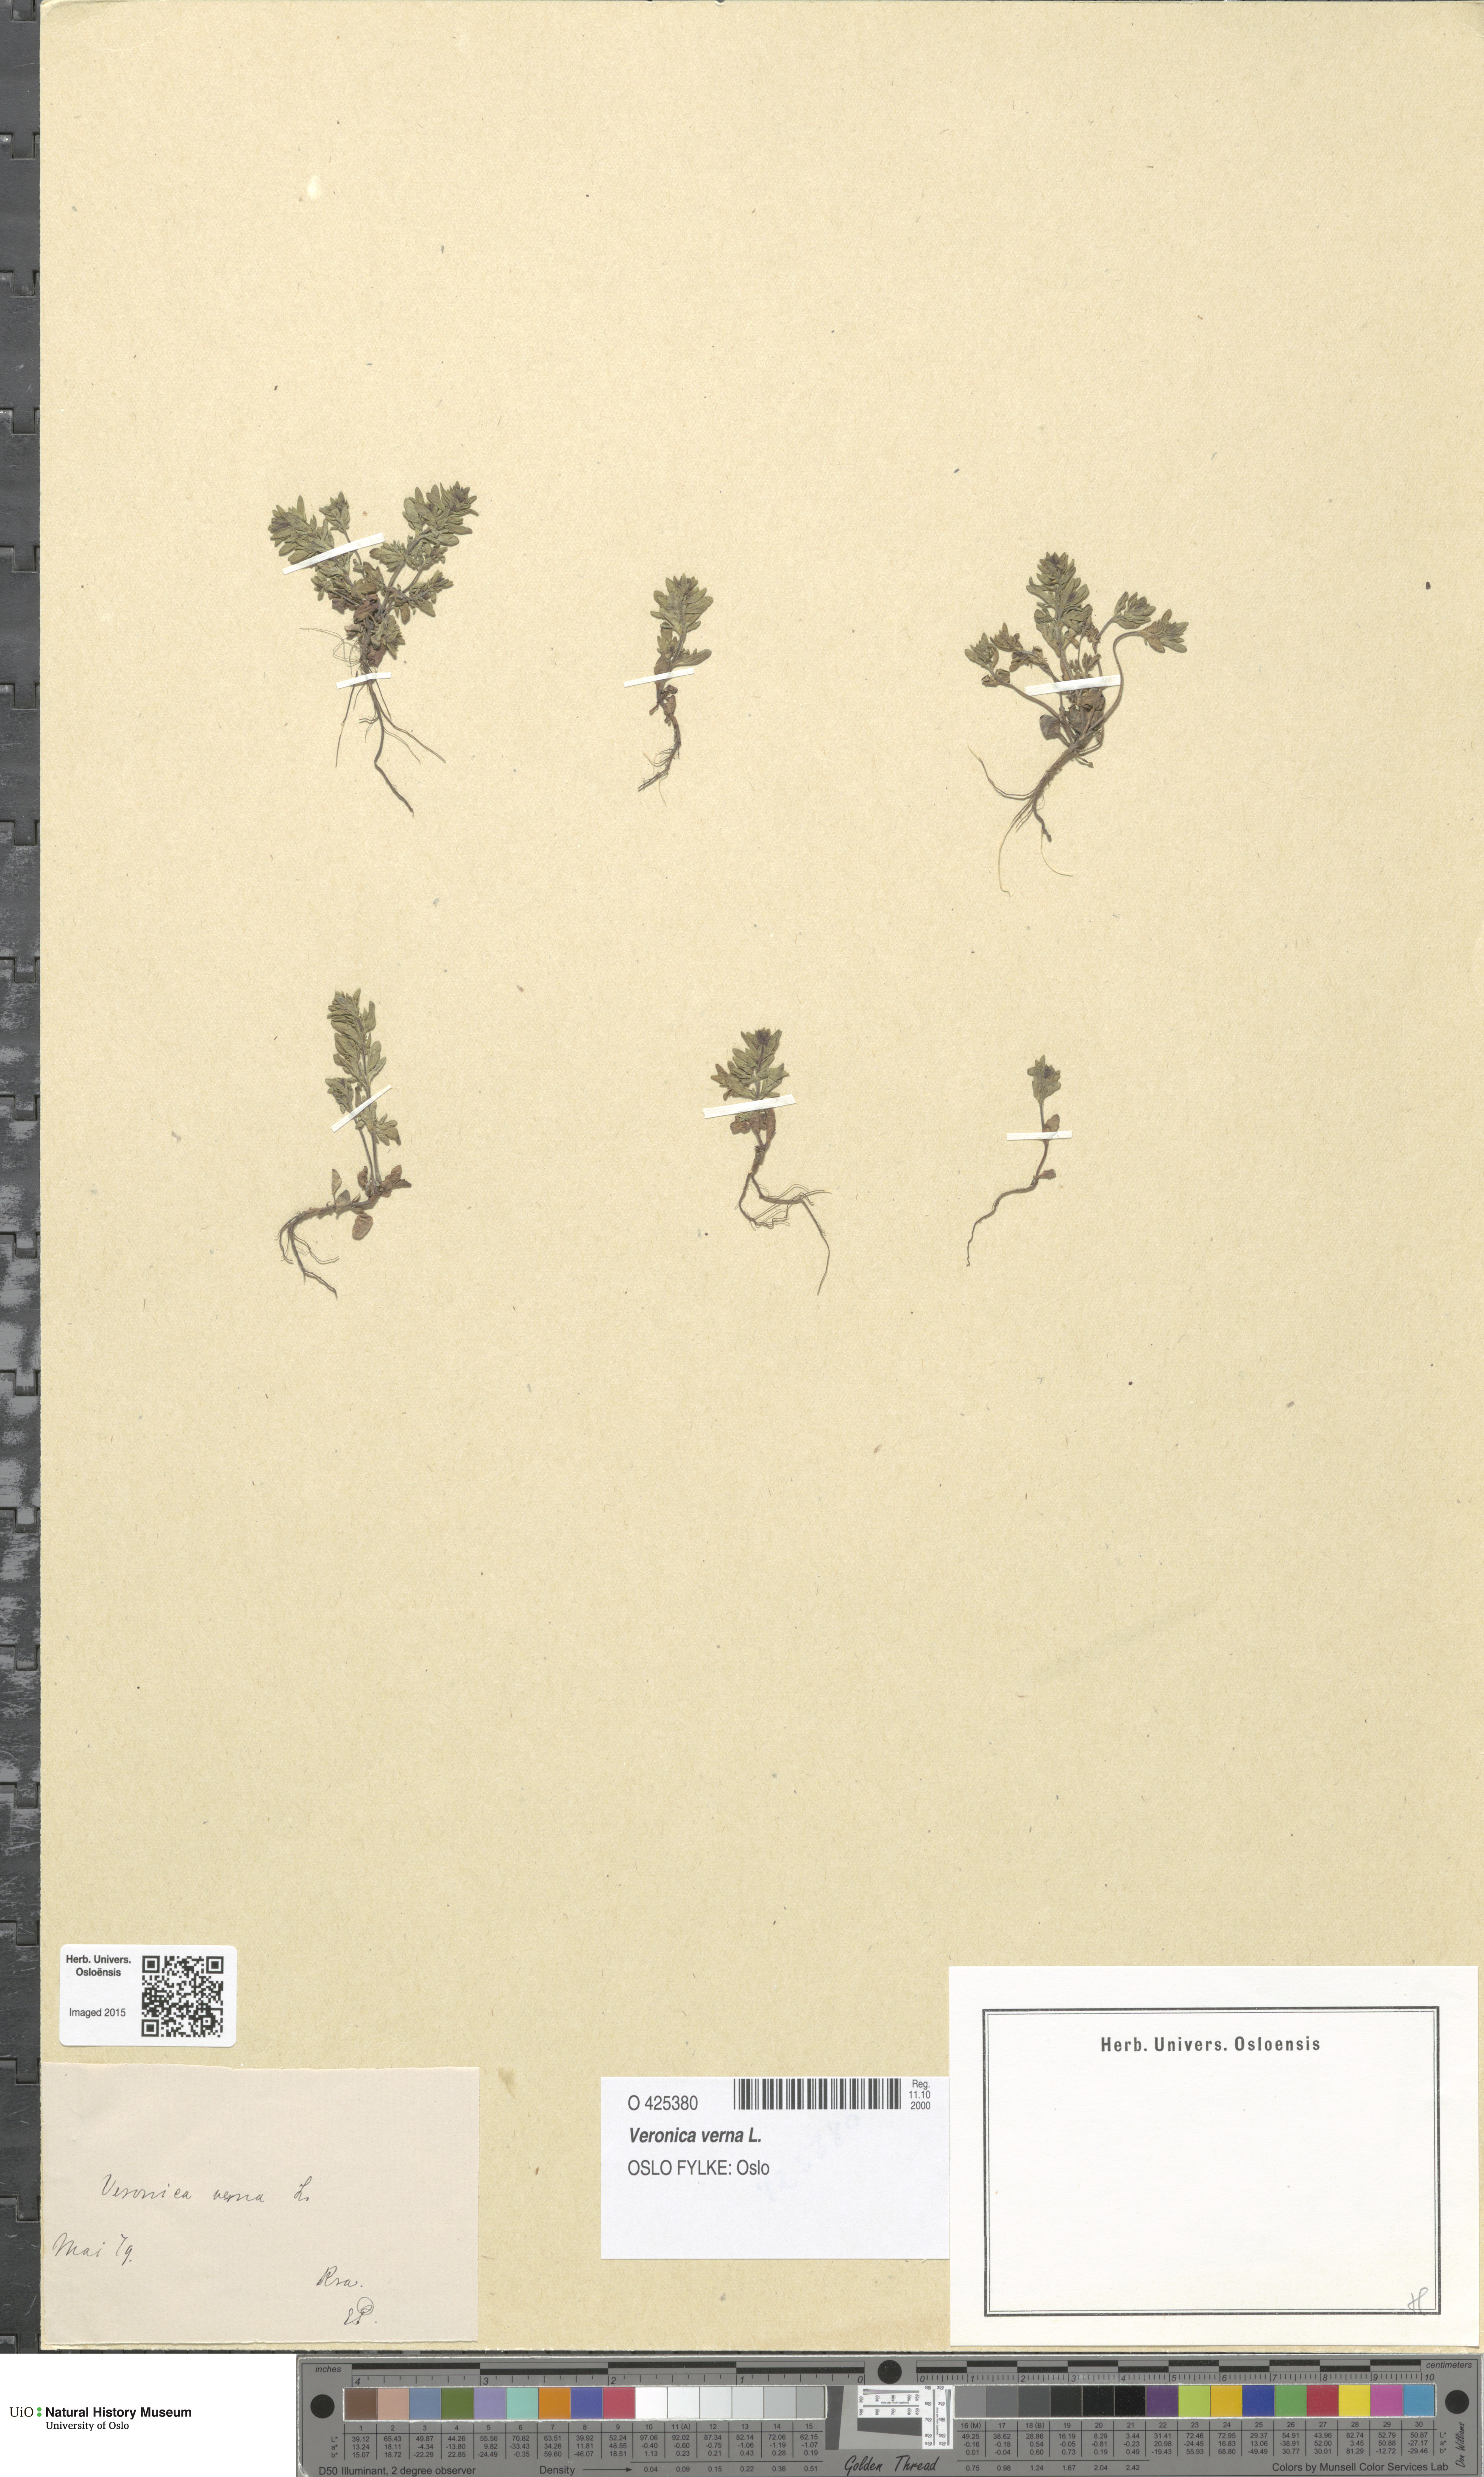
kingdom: Plantae
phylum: Tracheophyta
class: Magnoliopsida
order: Lamiales
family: Plantaginaceae
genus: Veronica
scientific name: Veronica verna
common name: Spring speedwell
